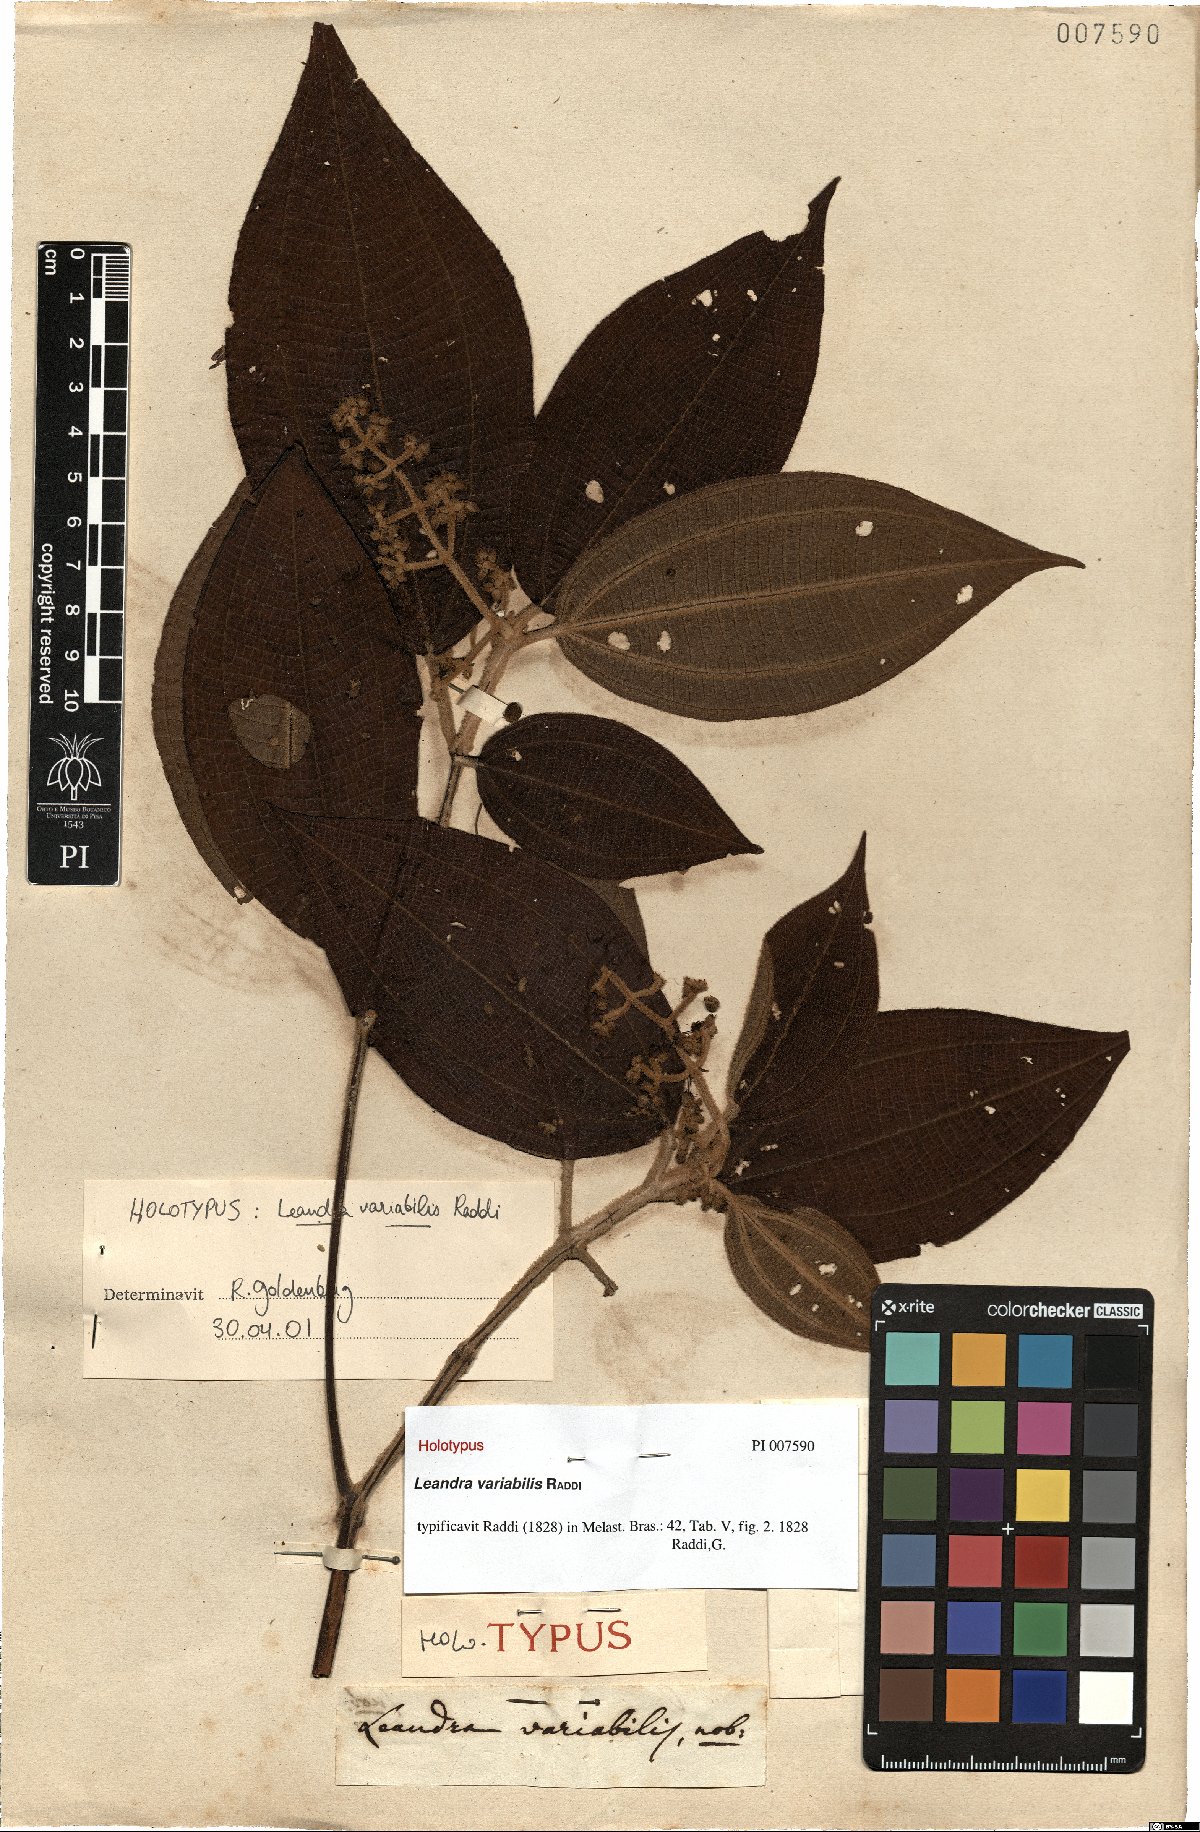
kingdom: Plantae
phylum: Tracheophyta
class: Magnoliopsida
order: Myrtales
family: Melastomataceae
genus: Miconia
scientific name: Miconia dasytricha
